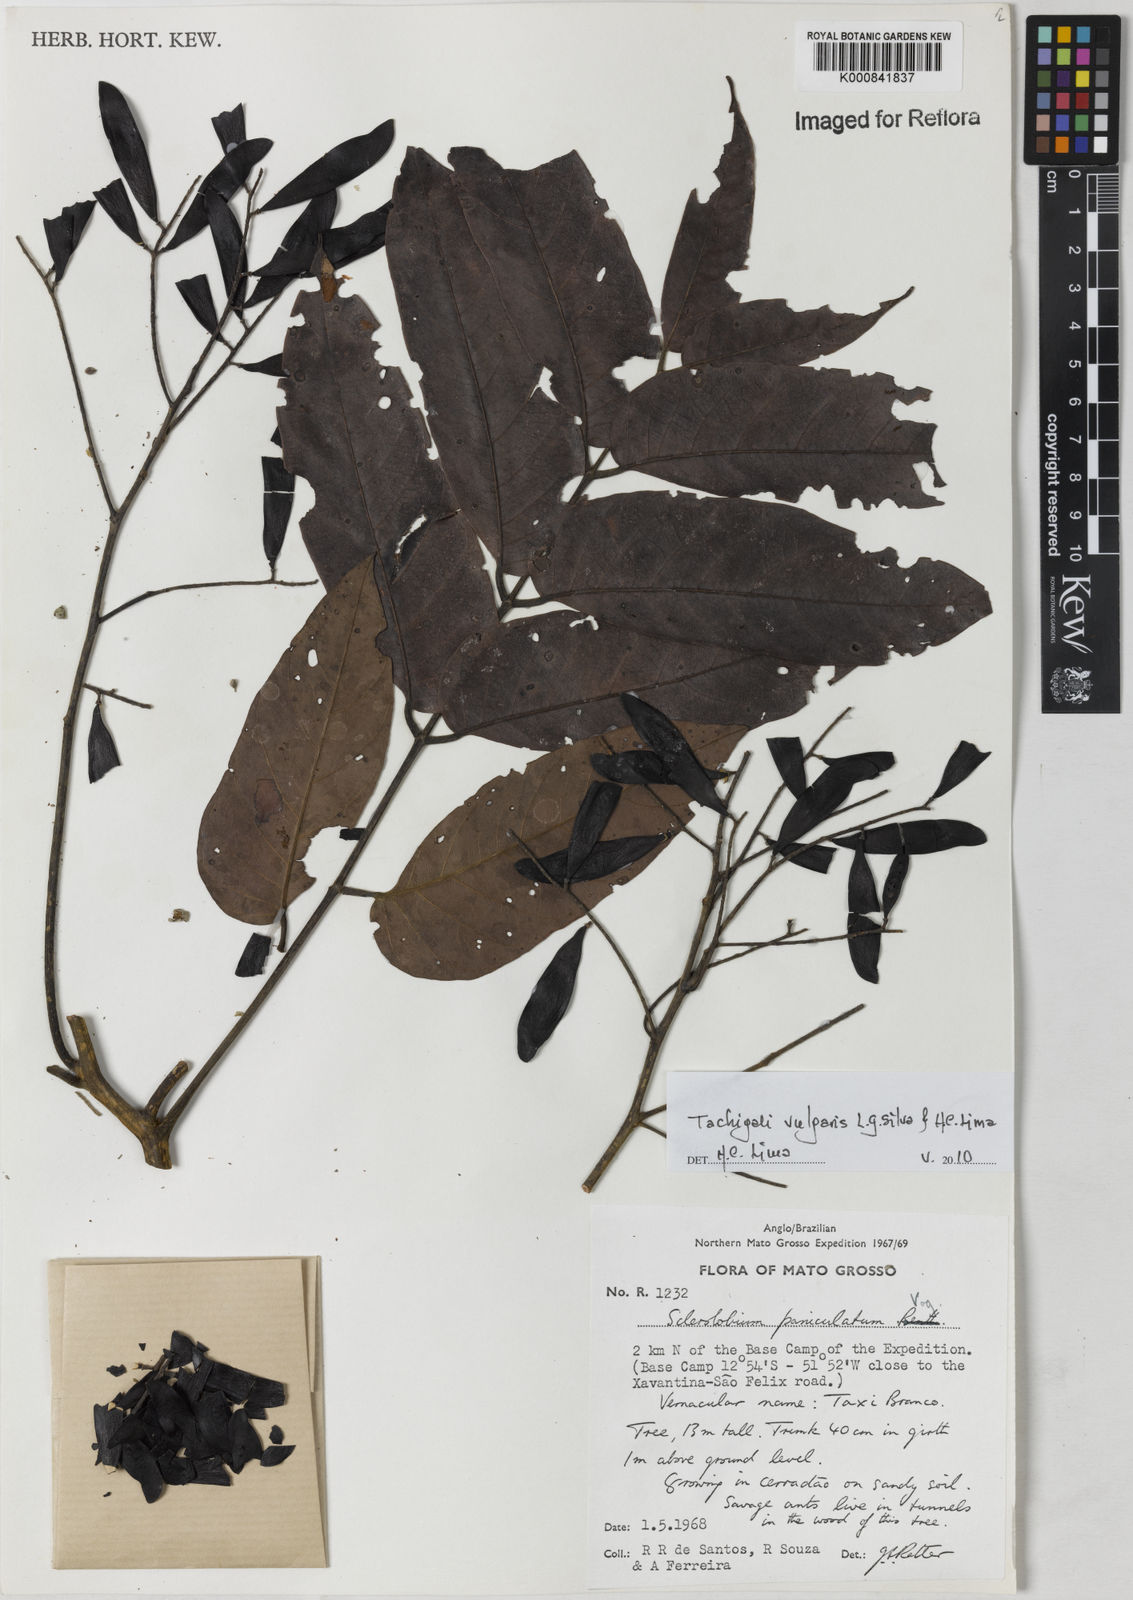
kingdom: Plantae
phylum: Tracheophyta
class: Magnoliopsida
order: Fabales
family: Fabaceae
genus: Tachigali
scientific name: Tachigali vulgaris
